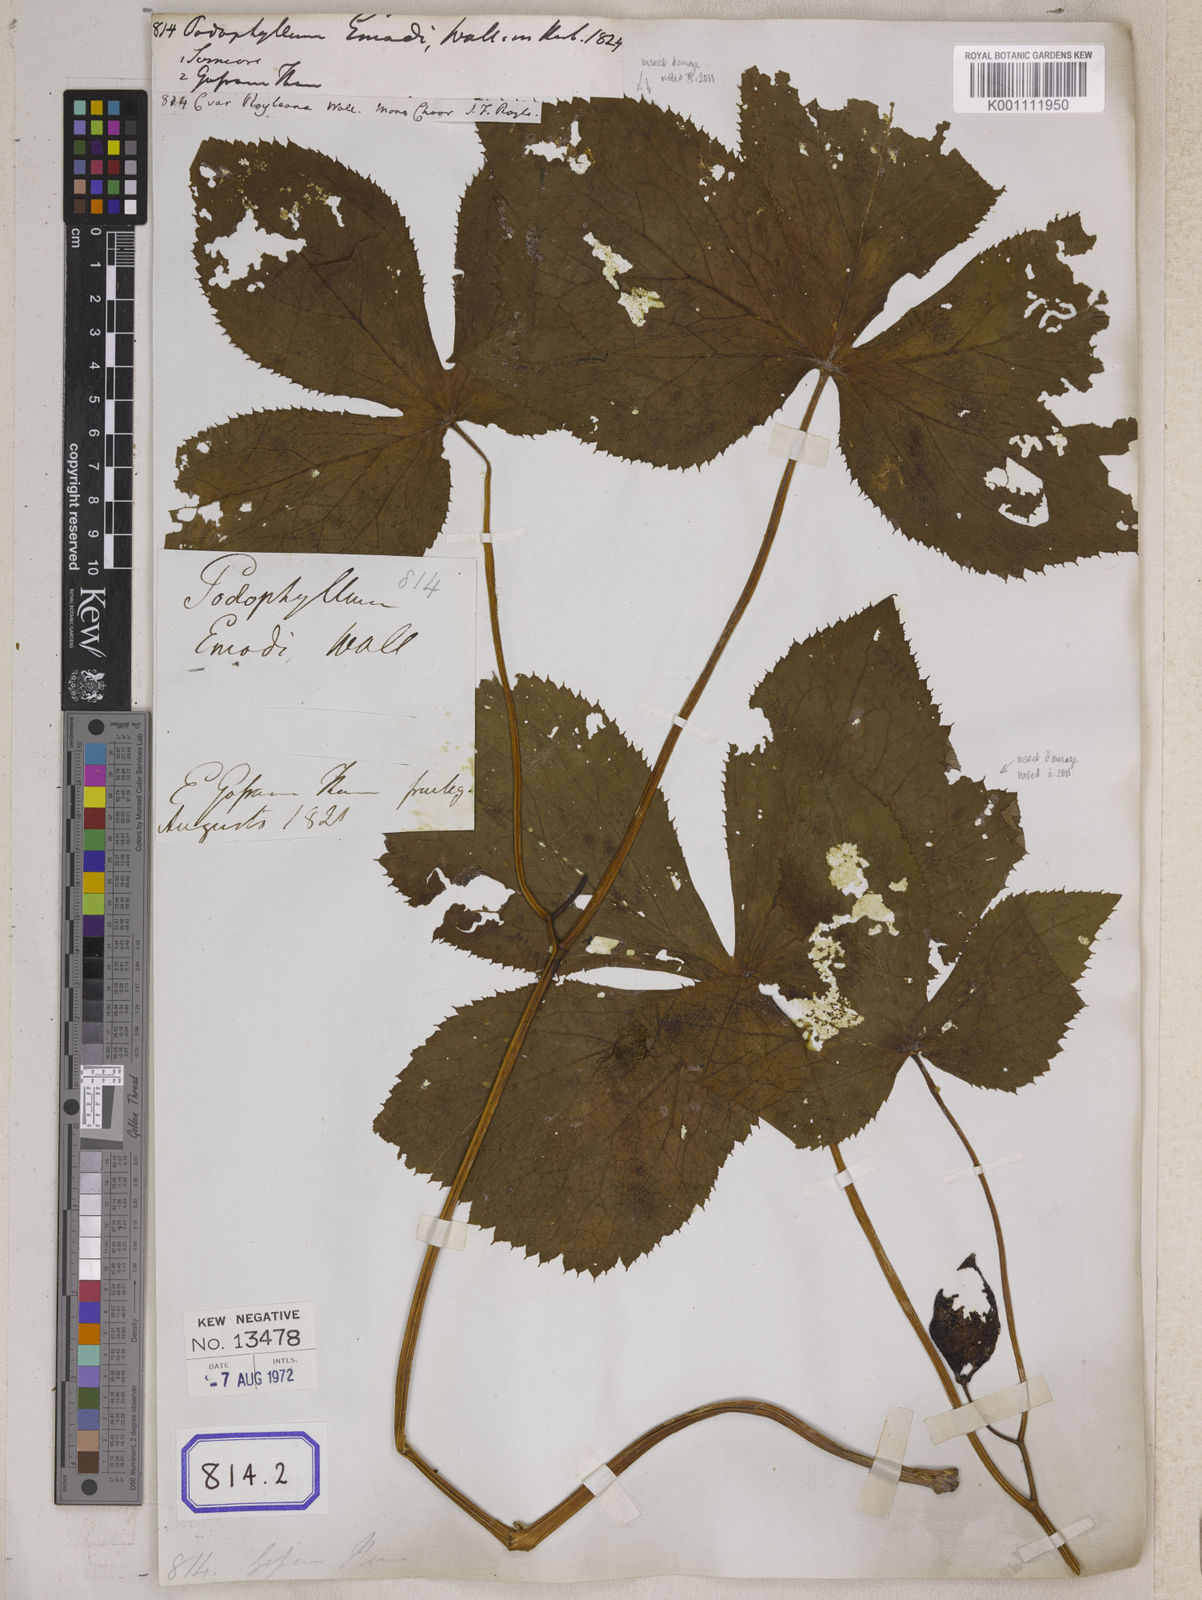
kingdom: Plantae
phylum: Tracheophyta
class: Magnoliopsida
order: Ranunculales
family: Berberidaceae
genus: Podophyllum
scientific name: Podophyllum
